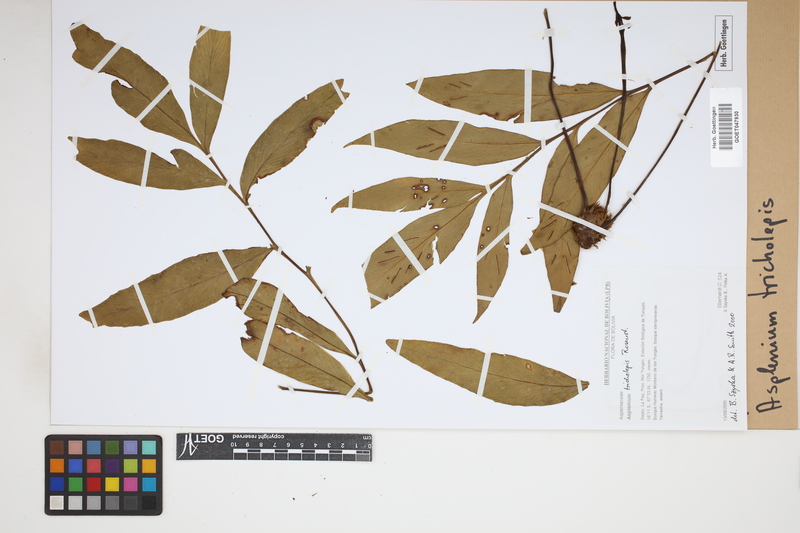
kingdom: Plantae
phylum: Tracheophyta
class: Polypodiopsida
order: Polypodiales
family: Aspleniaceae
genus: Asplenium
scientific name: Asplenium tricholepis
